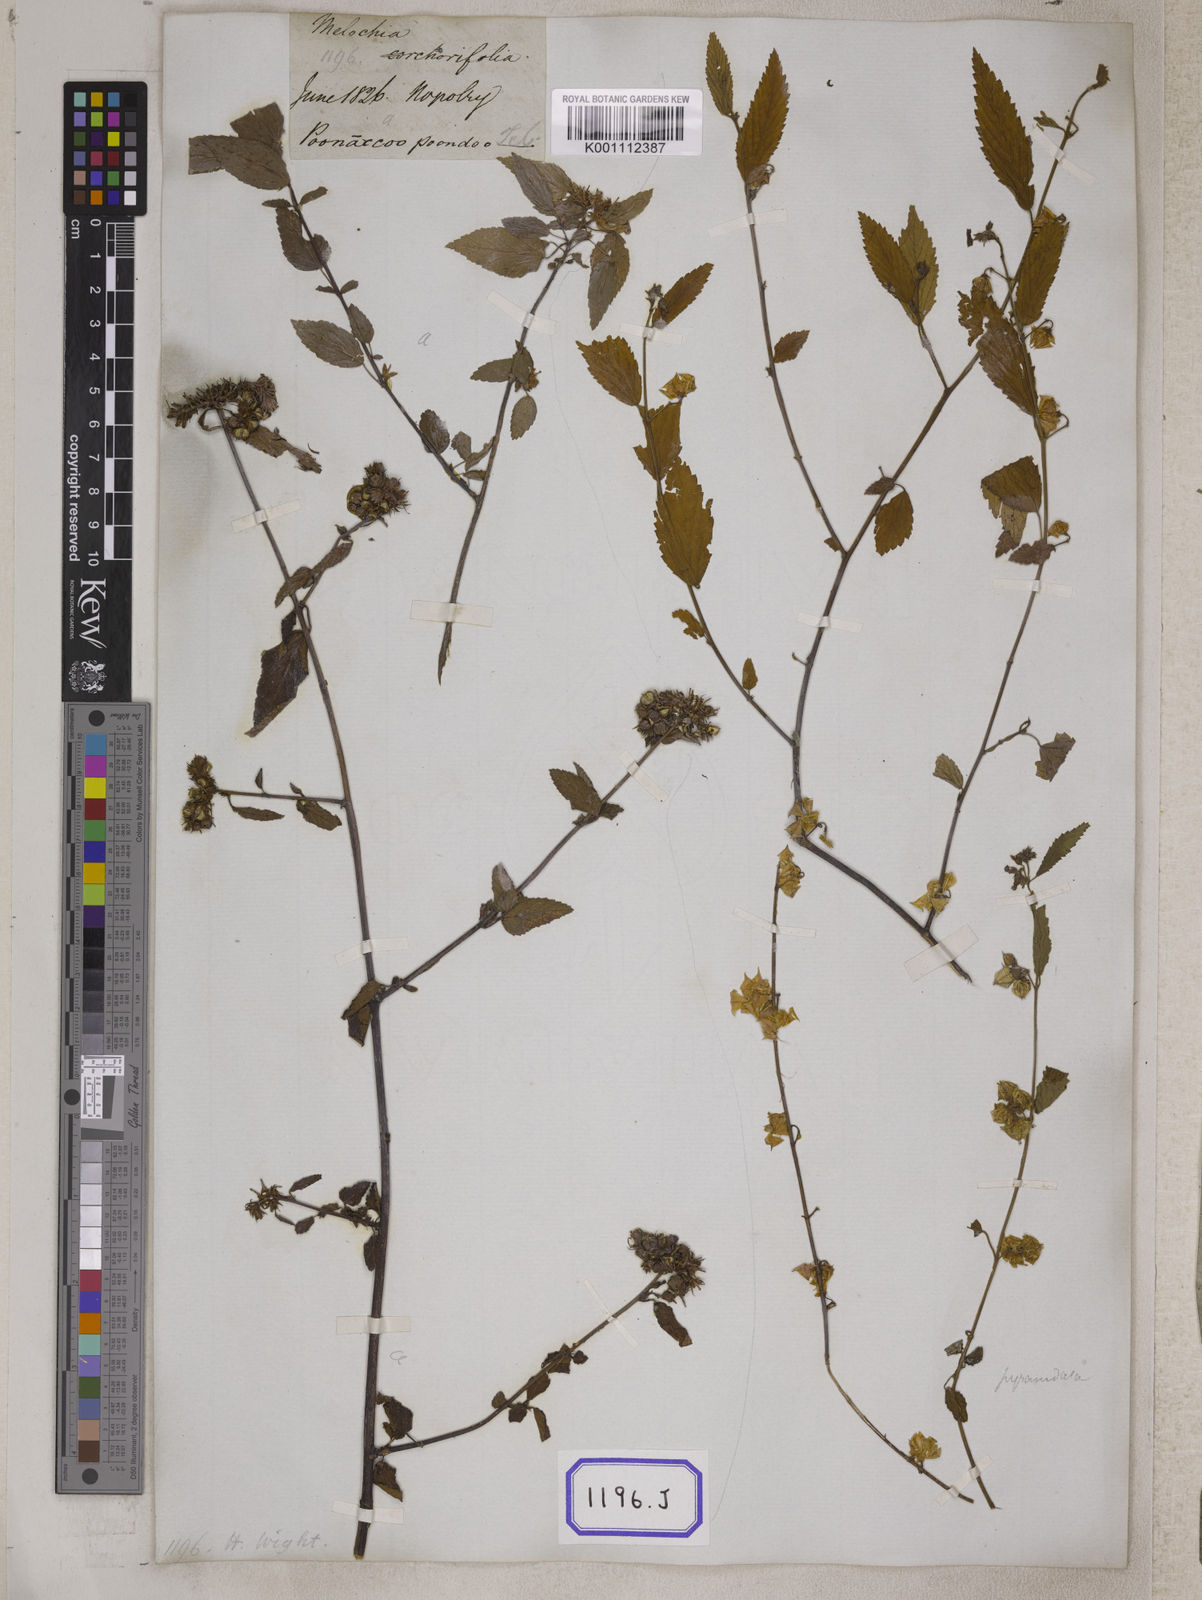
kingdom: Plantae
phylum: Tracheophyta
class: Magnoliopsida
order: Malvales
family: Malvaceae
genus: Melochia
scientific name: Melochia corchorifolia
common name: Chocolateweed
